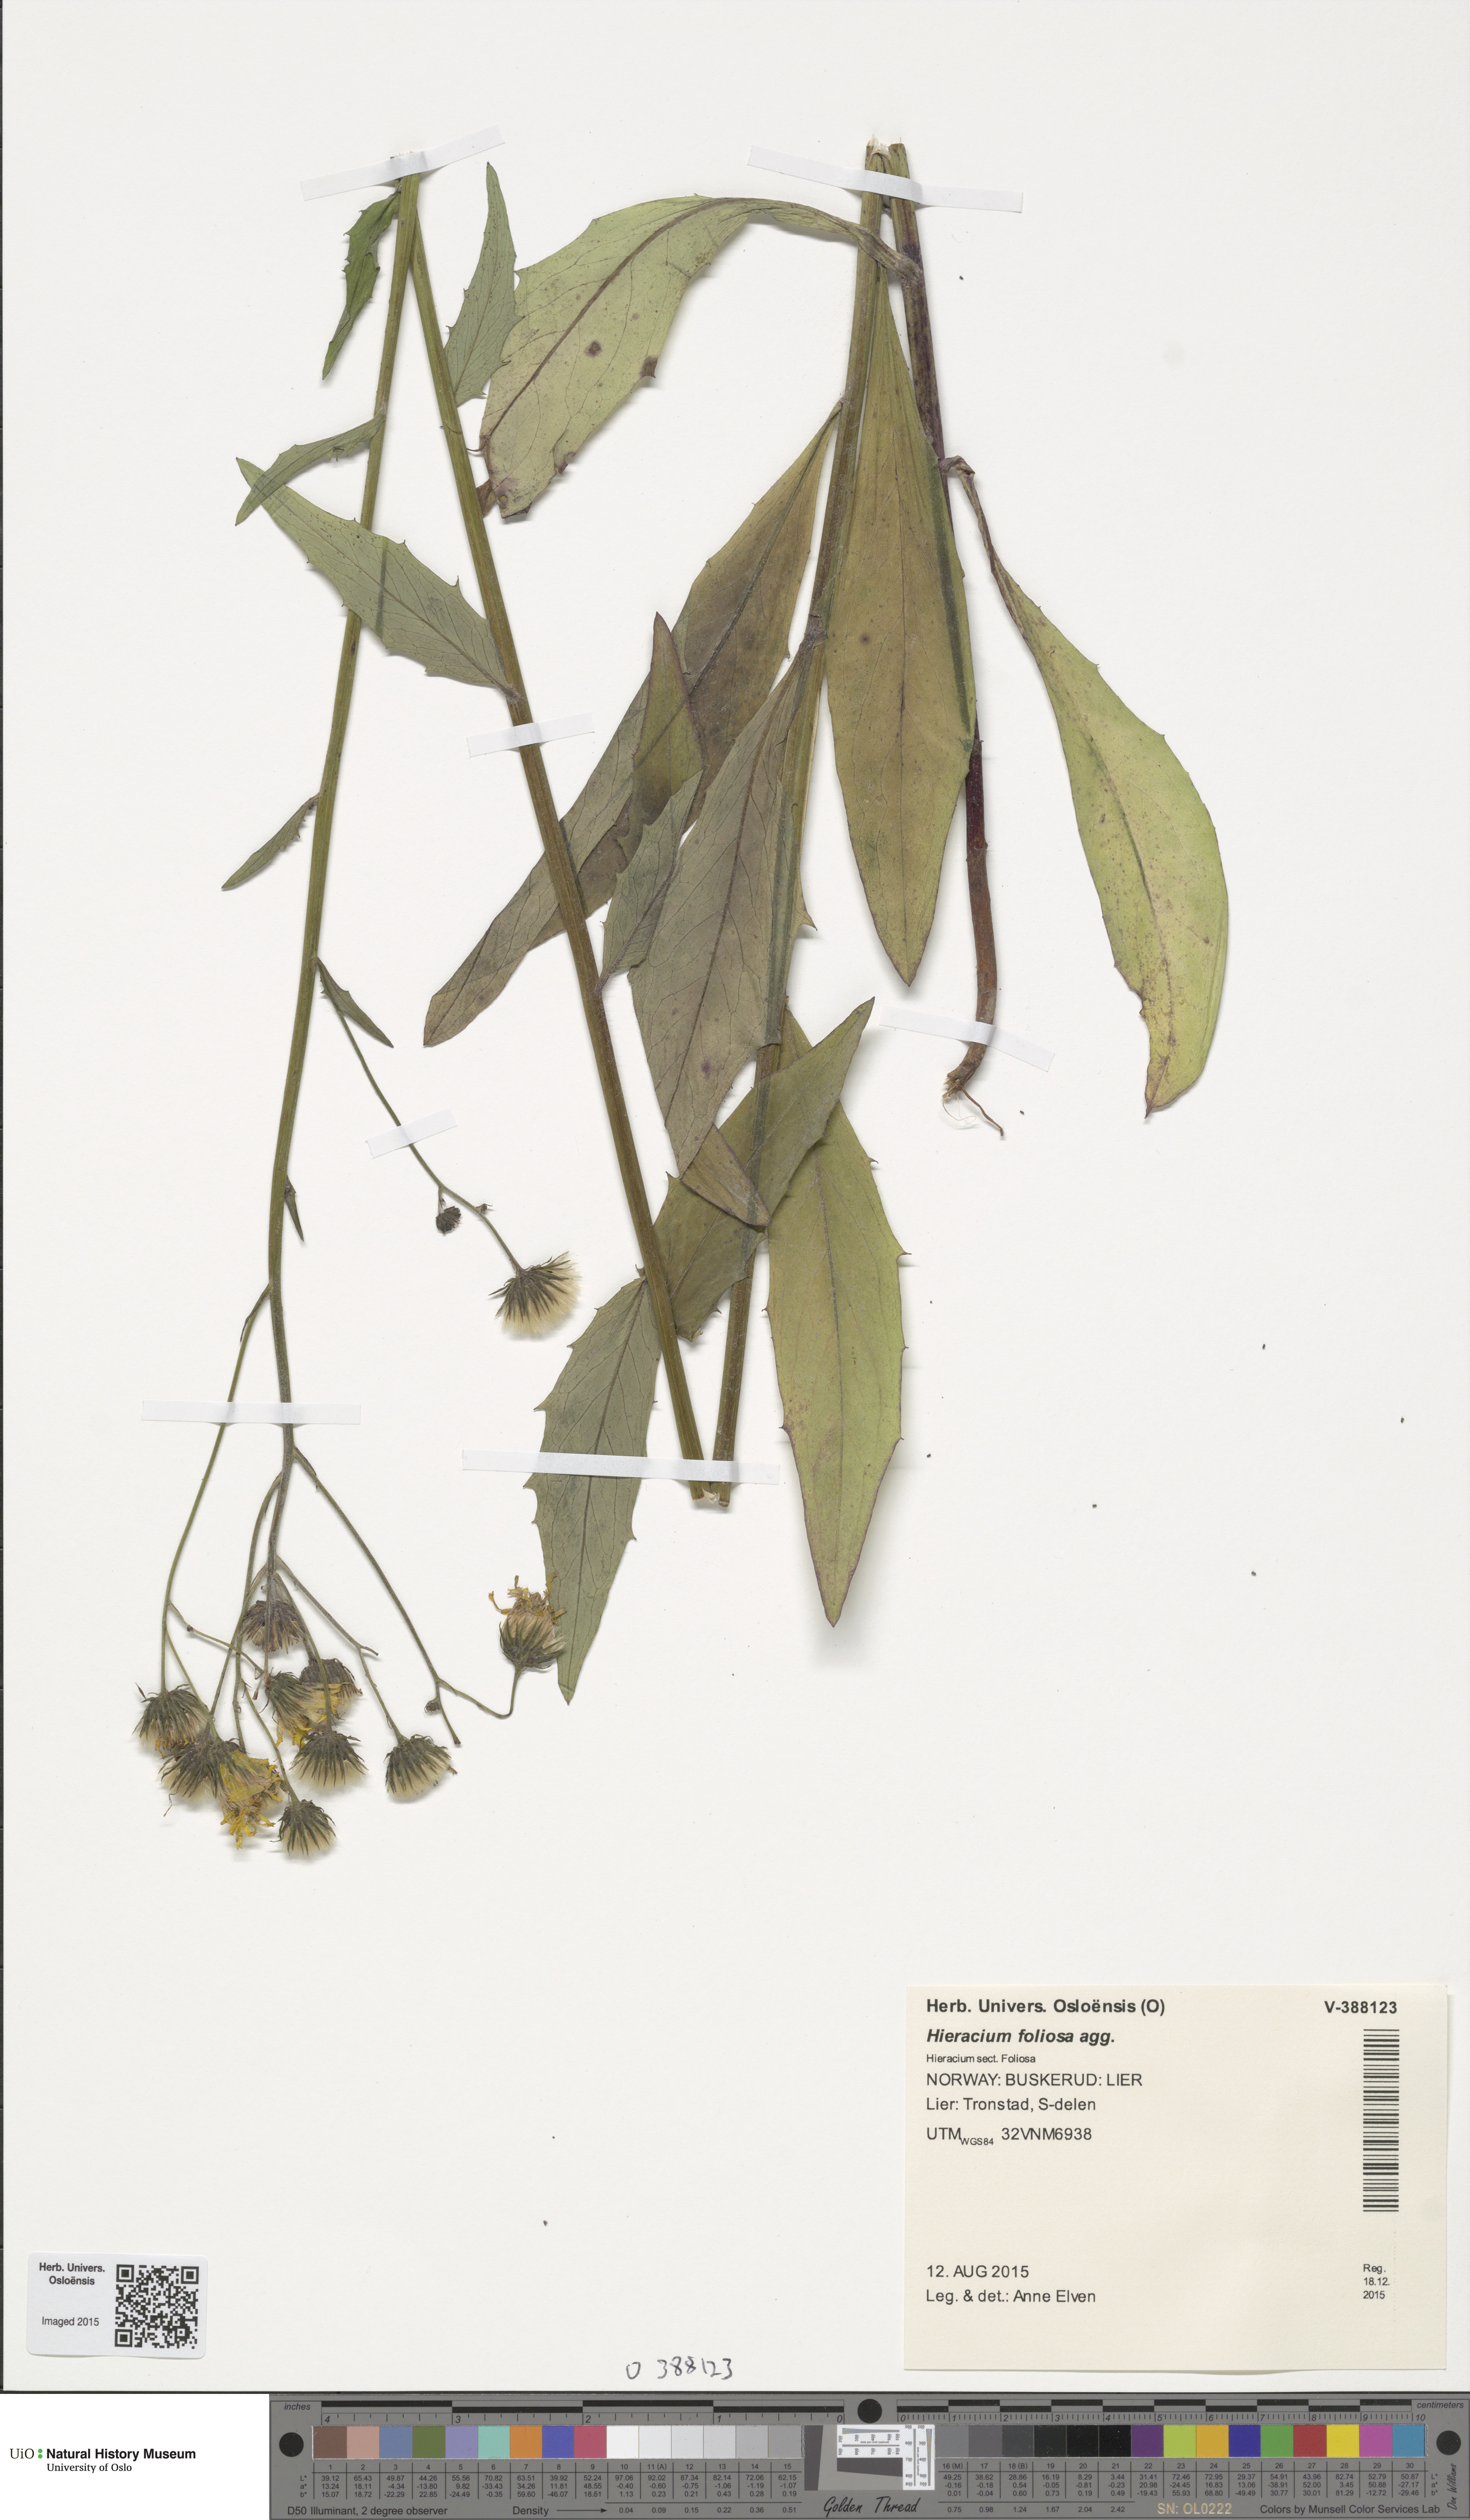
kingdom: Plantae
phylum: Tracheophyta
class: Magnoliopsida
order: Asterales
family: Asteraceae
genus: Hieracium
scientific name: Hieracium
